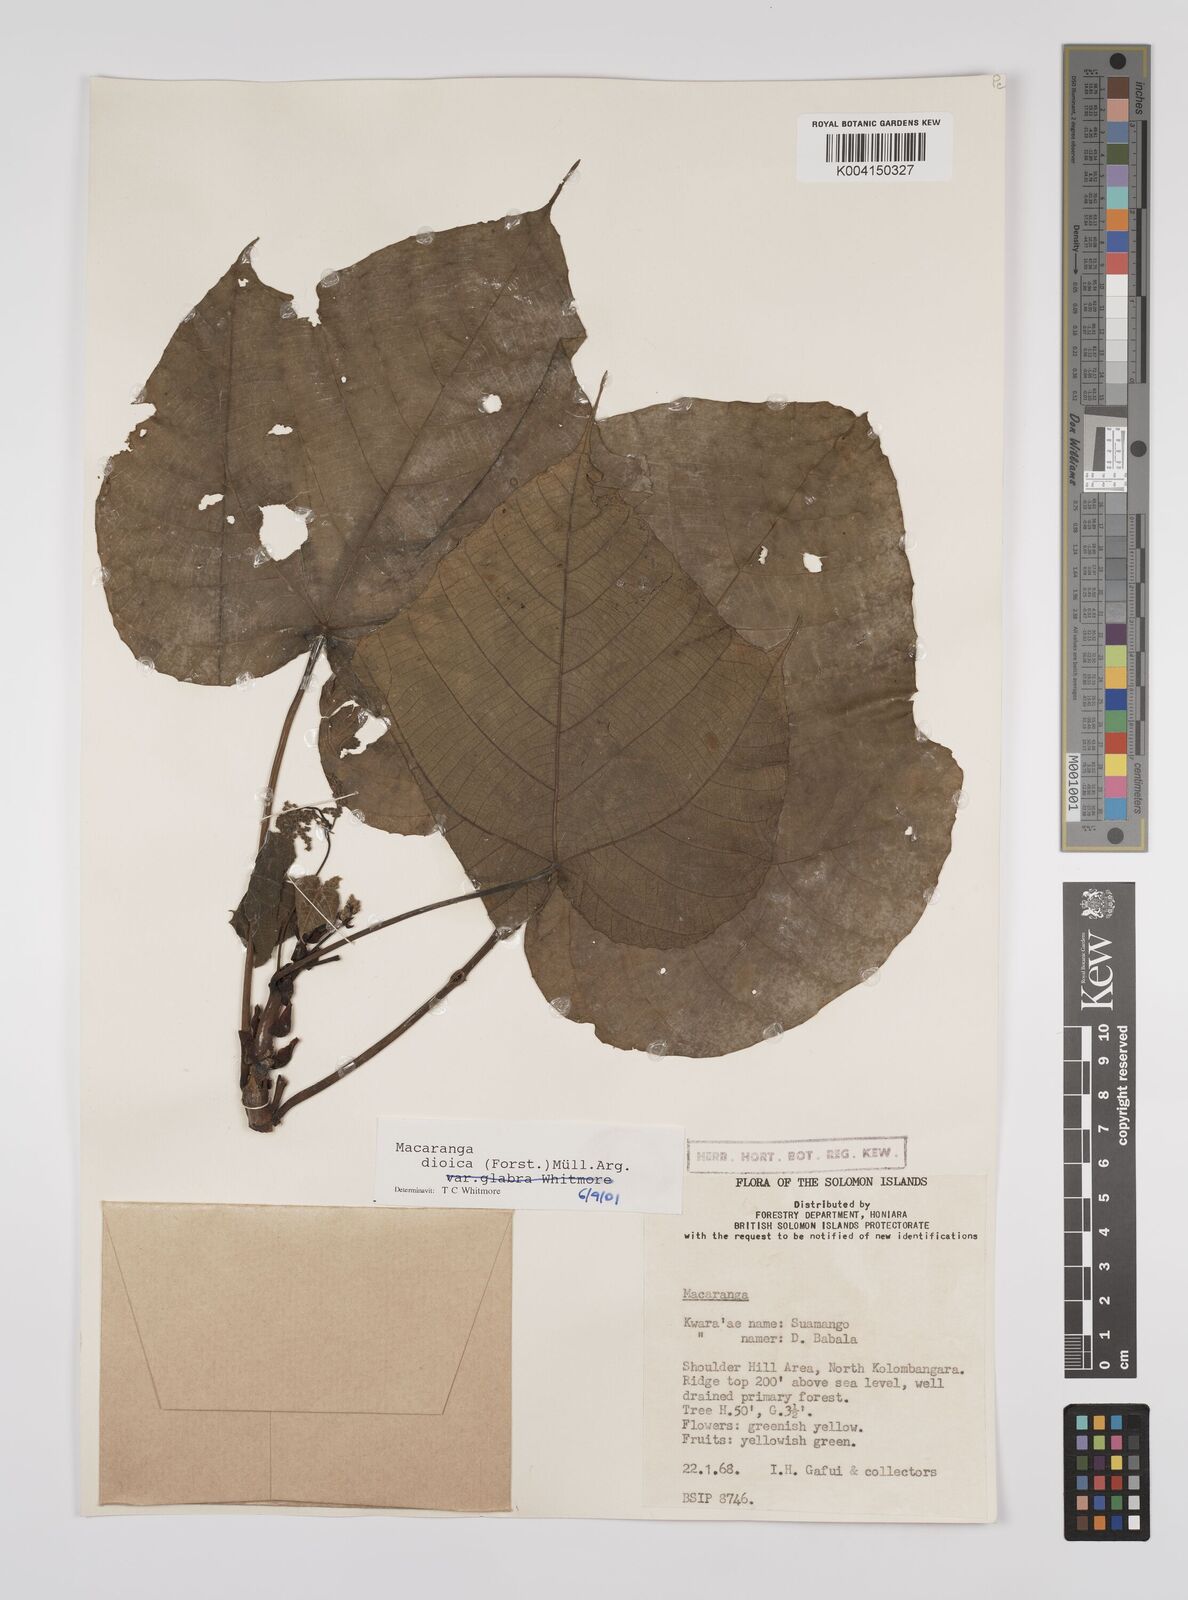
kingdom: Plantae
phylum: Tracheophyta
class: Magnoliopsida
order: Malpighiales
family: Euphorbiaceae
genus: Macaranga
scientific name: Macaranga dioica
